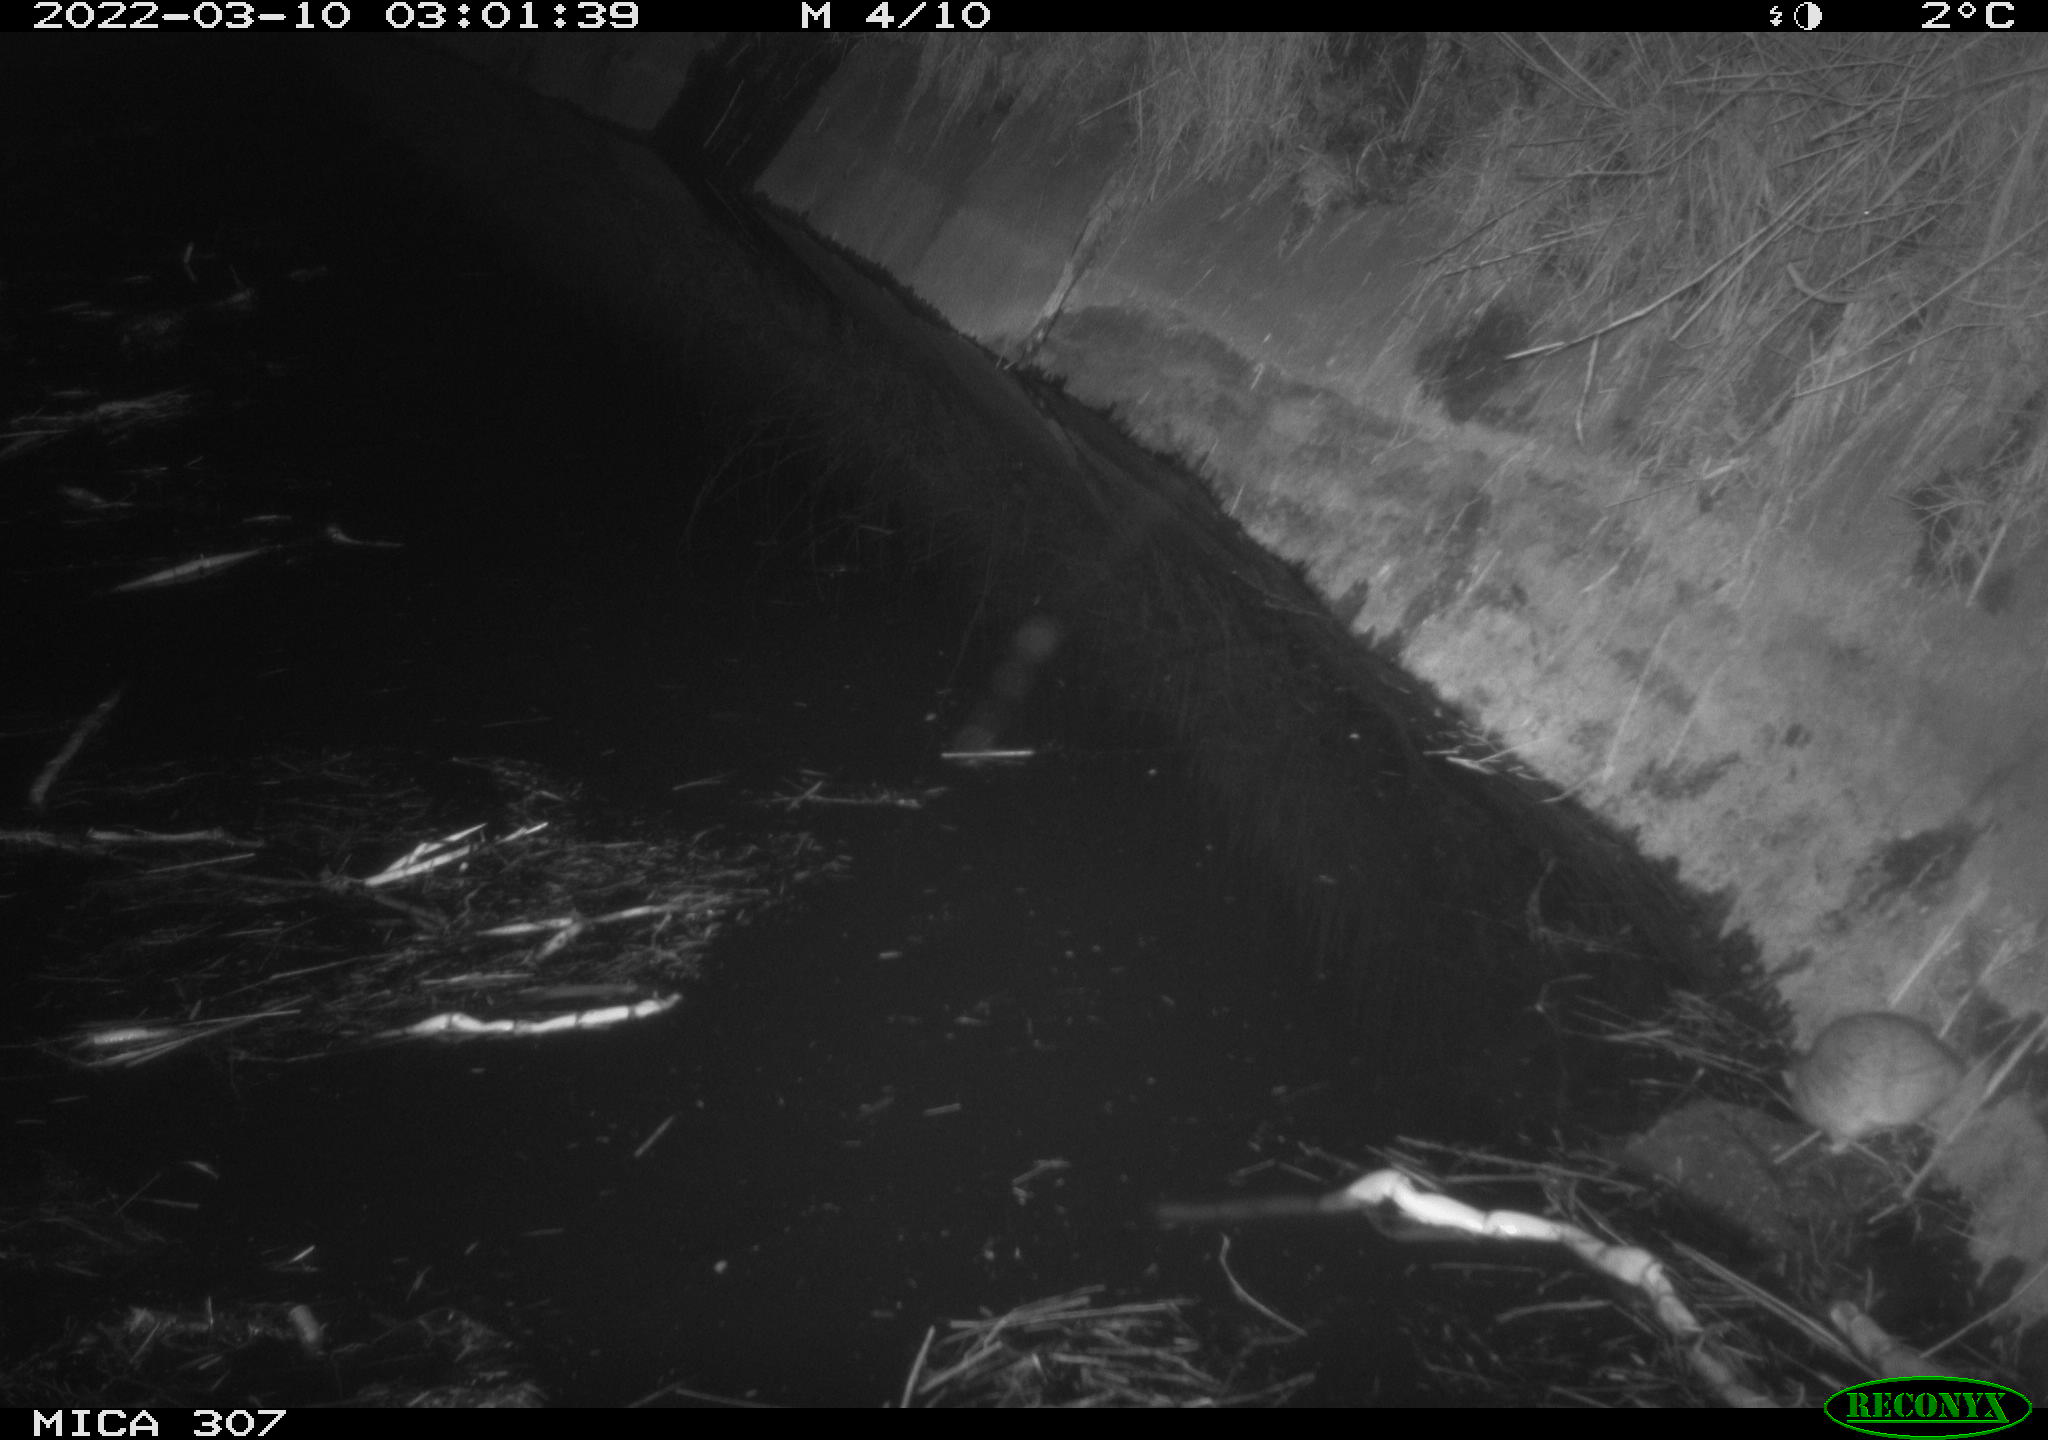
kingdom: Animalia
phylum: Chordata
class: Mammalia
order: Rodentia
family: Muridae
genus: Rattus
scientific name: Rattus norvegicus
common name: Brown rat
